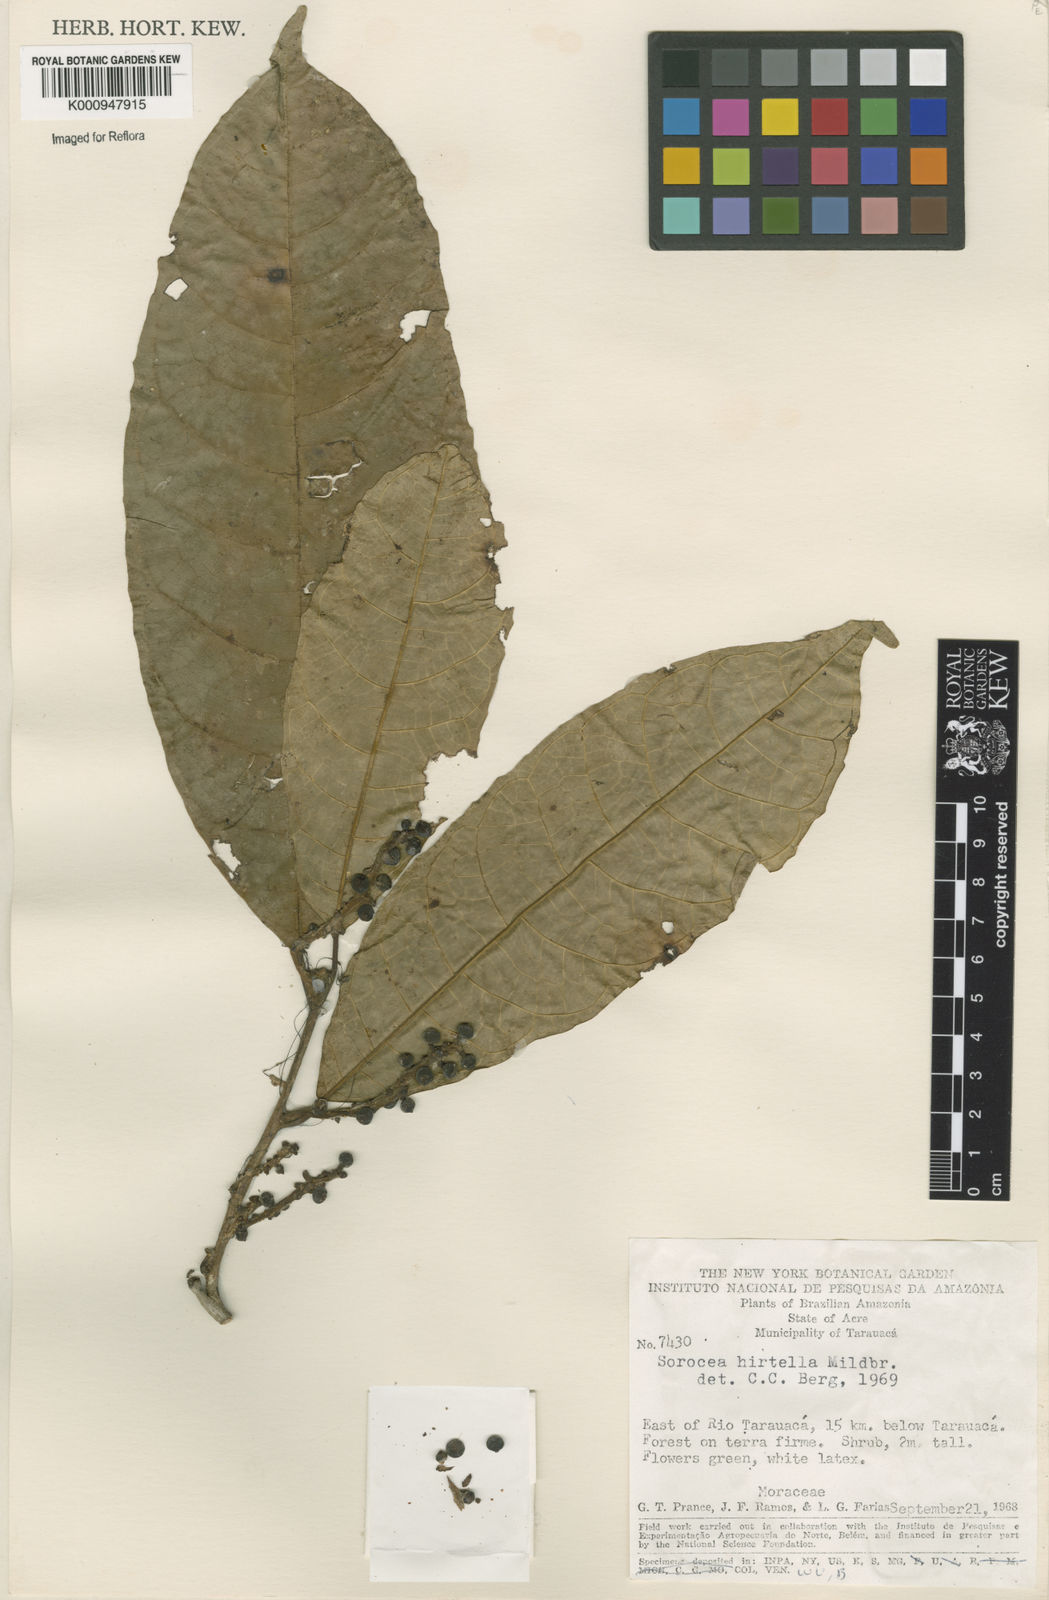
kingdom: Plantae
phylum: Tracheophyta
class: Magnoliopsida
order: Rosales
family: Moraceae
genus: Sorocea
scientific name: Sorocea pubivena
